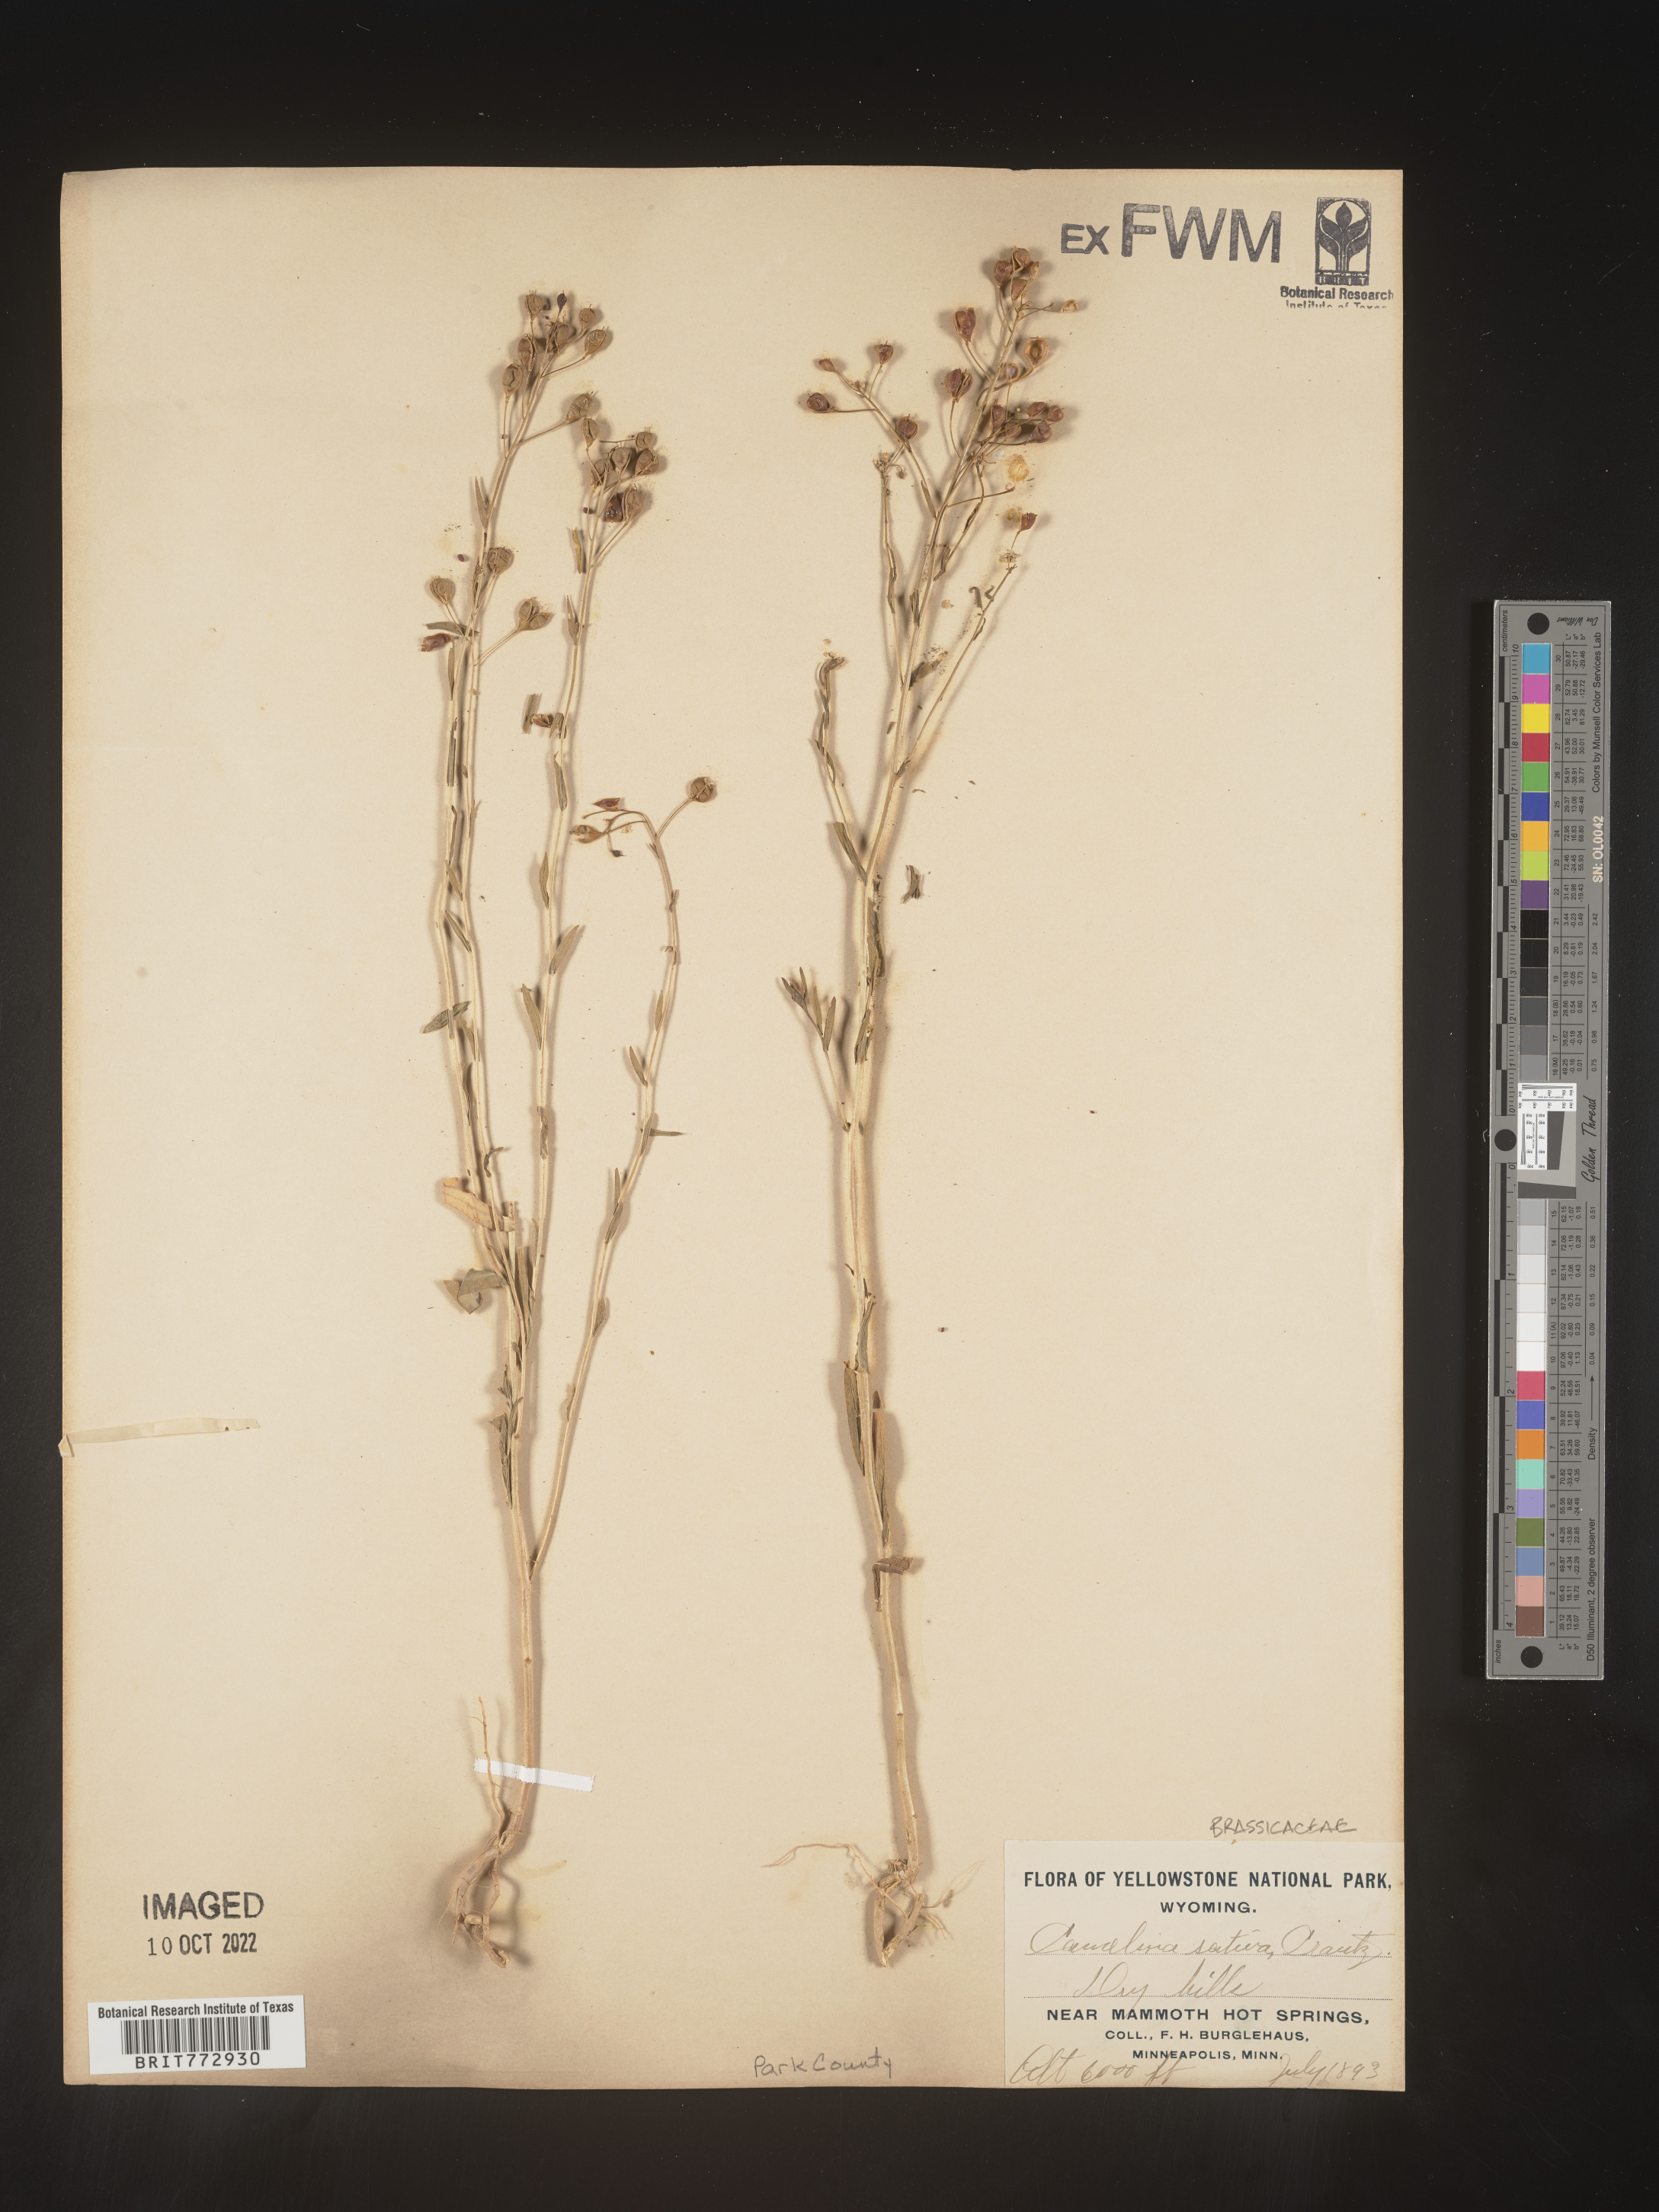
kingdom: Plantae
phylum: Tracheophyta
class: Magnoliopsida
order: Brassicales
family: Brassicaceae
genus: Camelina
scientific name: Camelina
